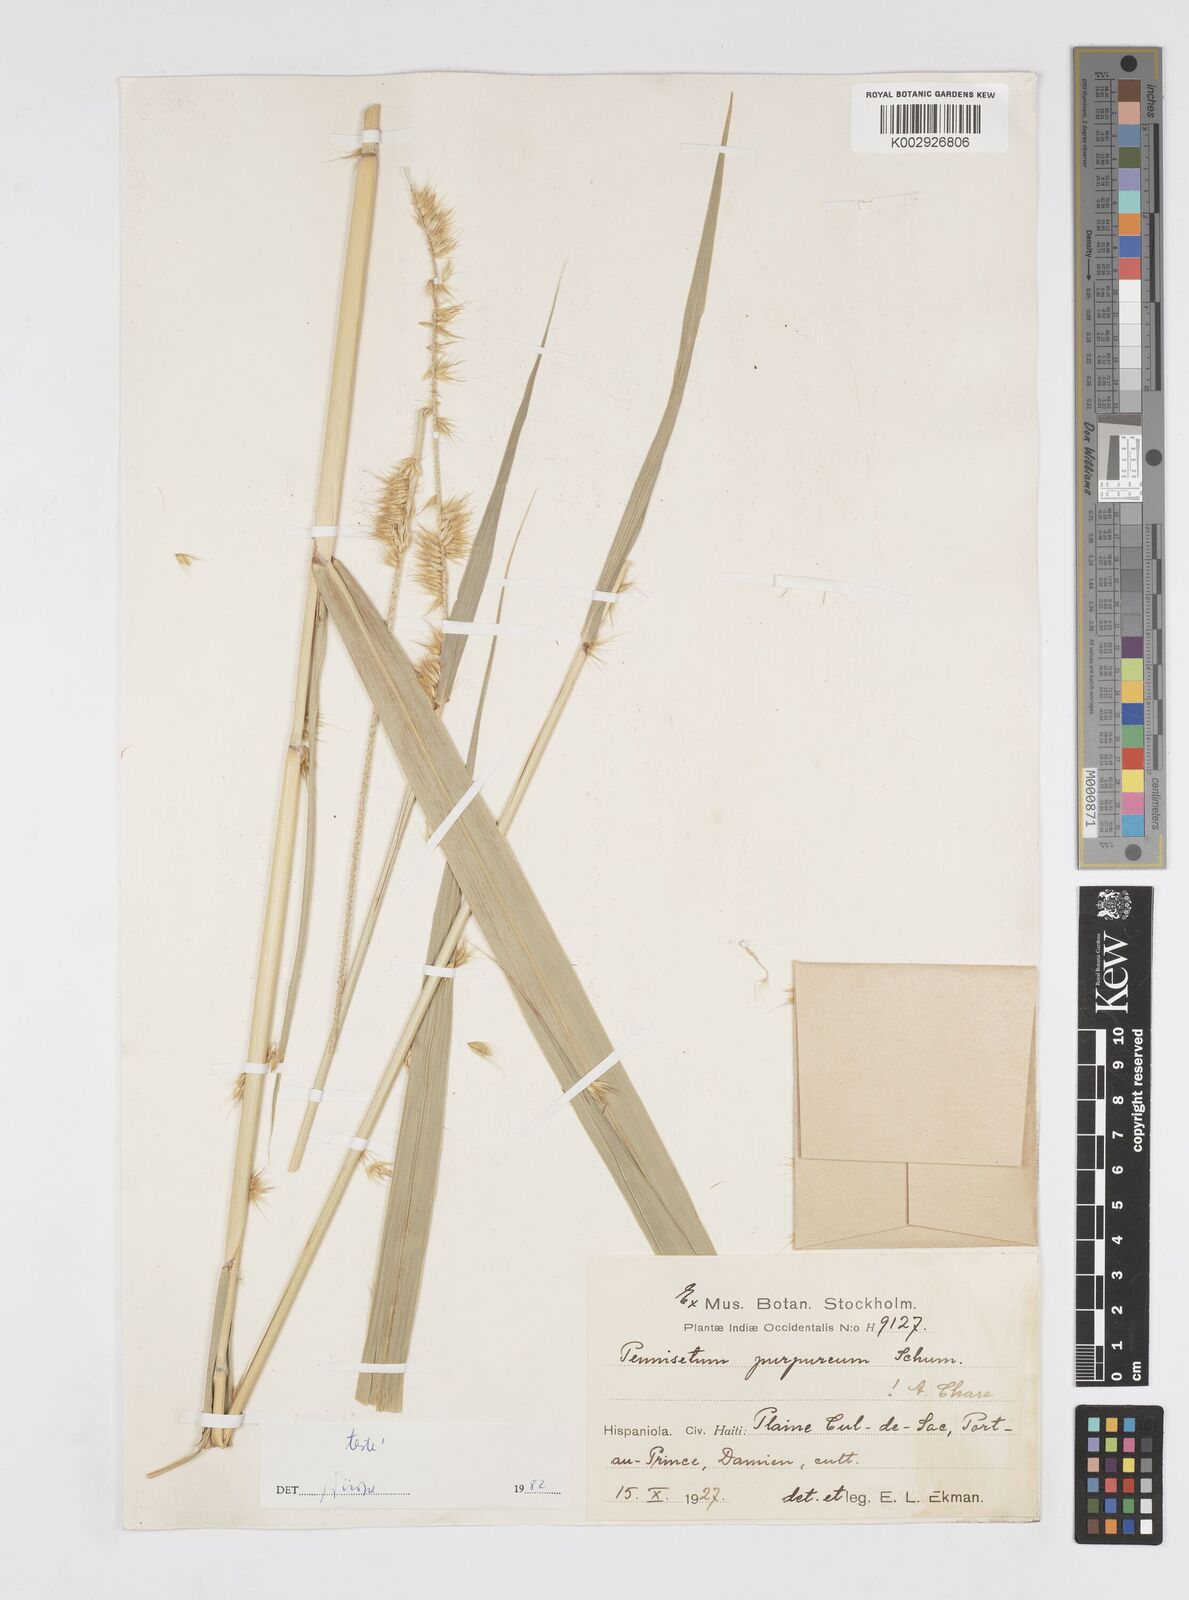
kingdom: Plantae
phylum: Tracheophyta
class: Liliopsida
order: Poales
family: Poaceae
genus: Cenchrus
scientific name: Cenchrus purpureus
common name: Elephant grass
